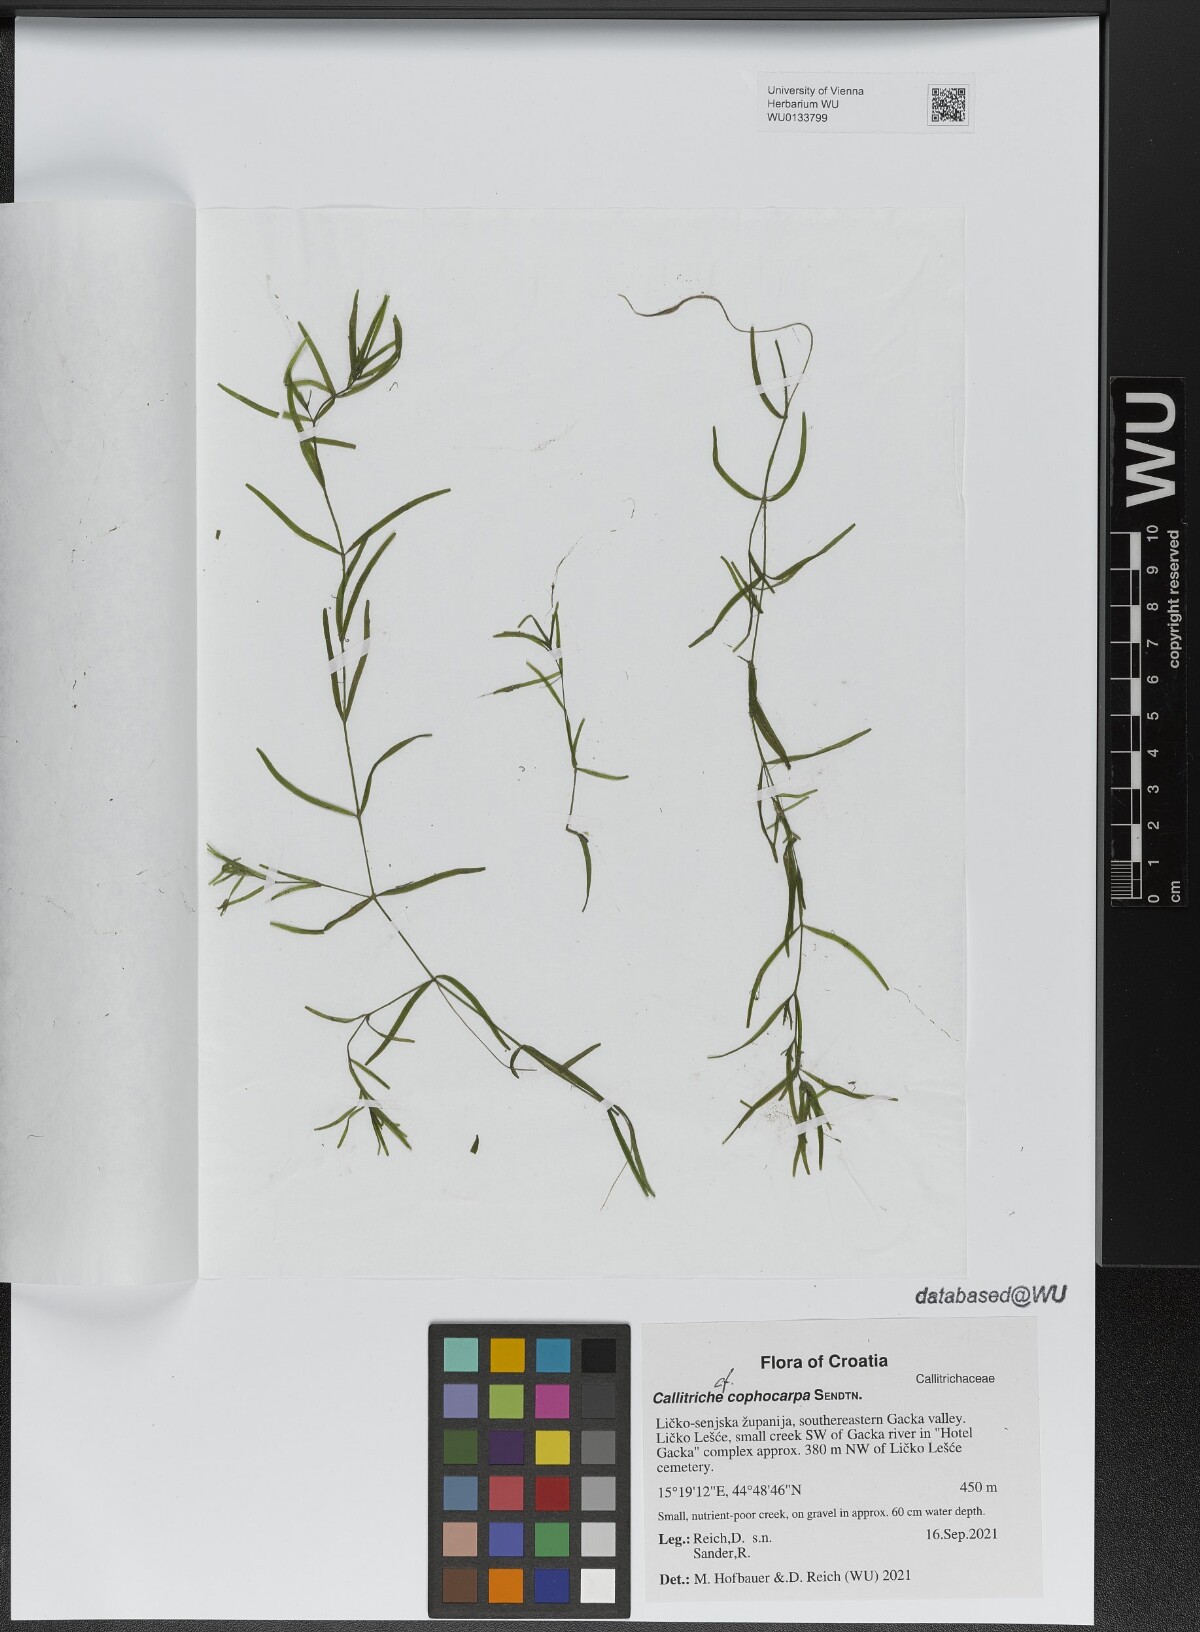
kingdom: Plantae
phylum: Tracheophyta
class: Magnoliopsida
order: Lamiales
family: Plantaginaceae
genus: Callitriche
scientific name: Callitriche cophocarpa
